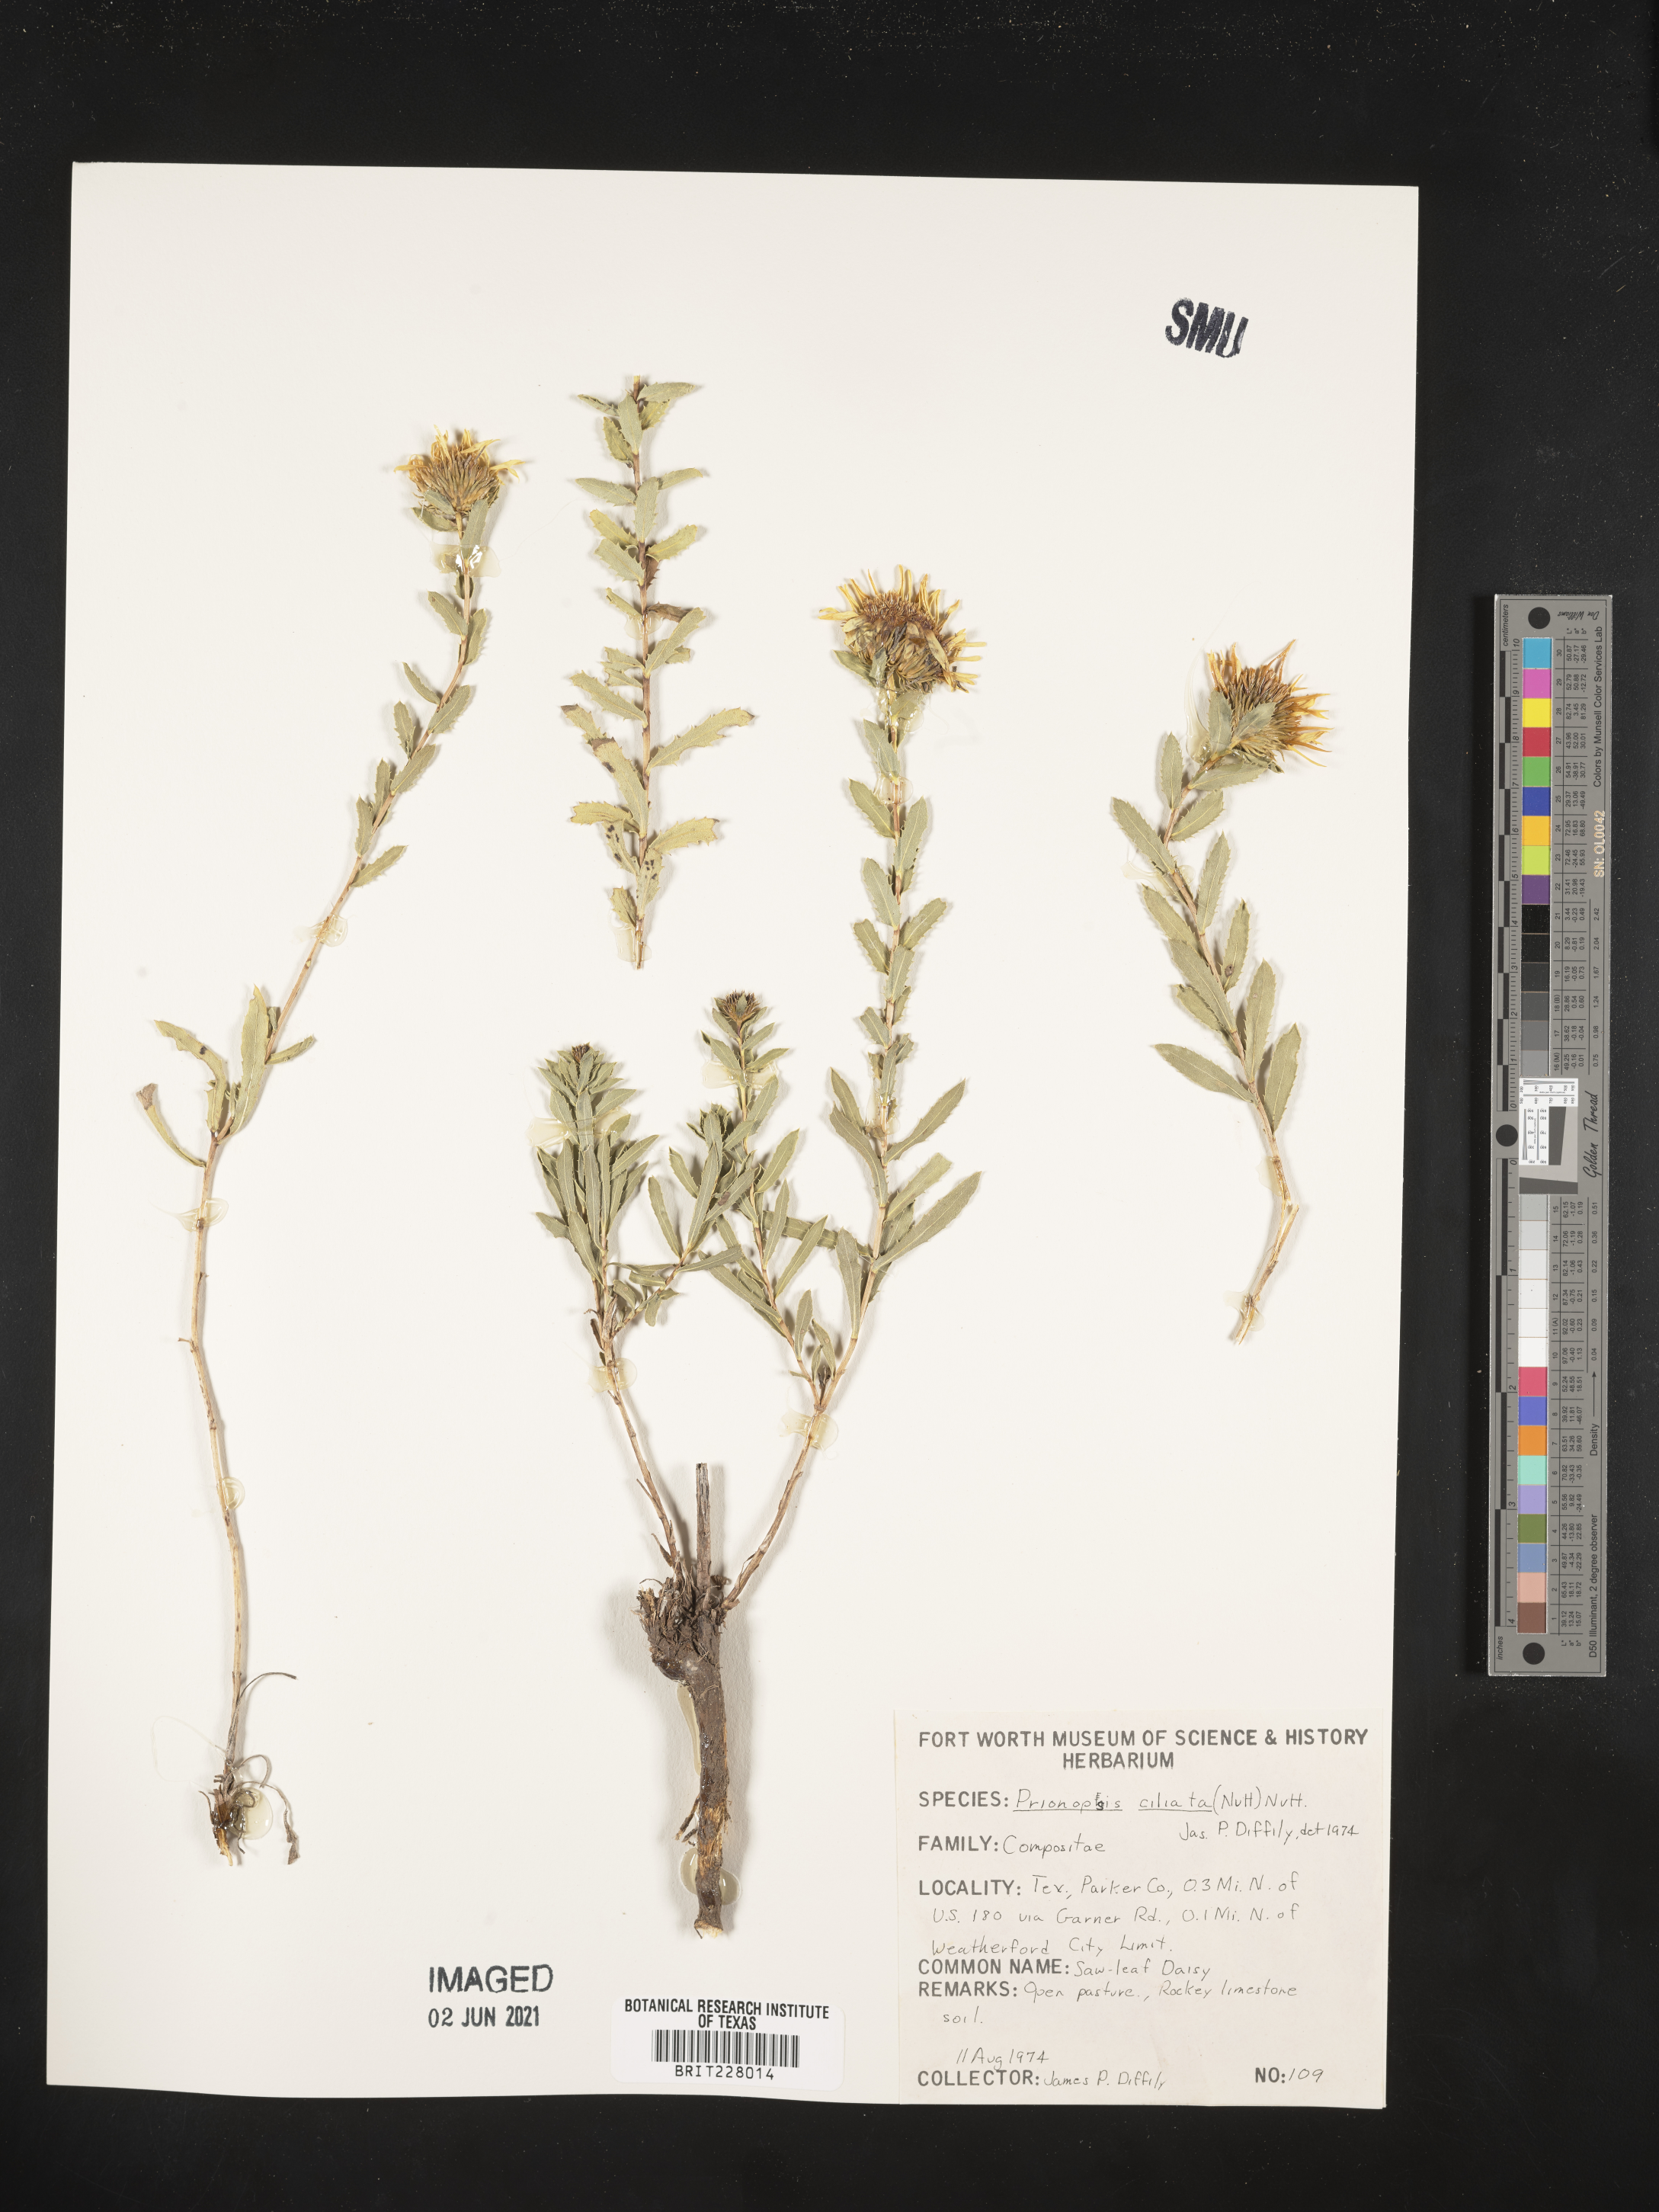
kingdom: Plantae
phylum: Tracheophyta
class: Magnoliopsida
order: Asterales
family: Asteraceae
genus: Grindelia
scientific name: Grindelia ciliata
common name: Goldenweed
